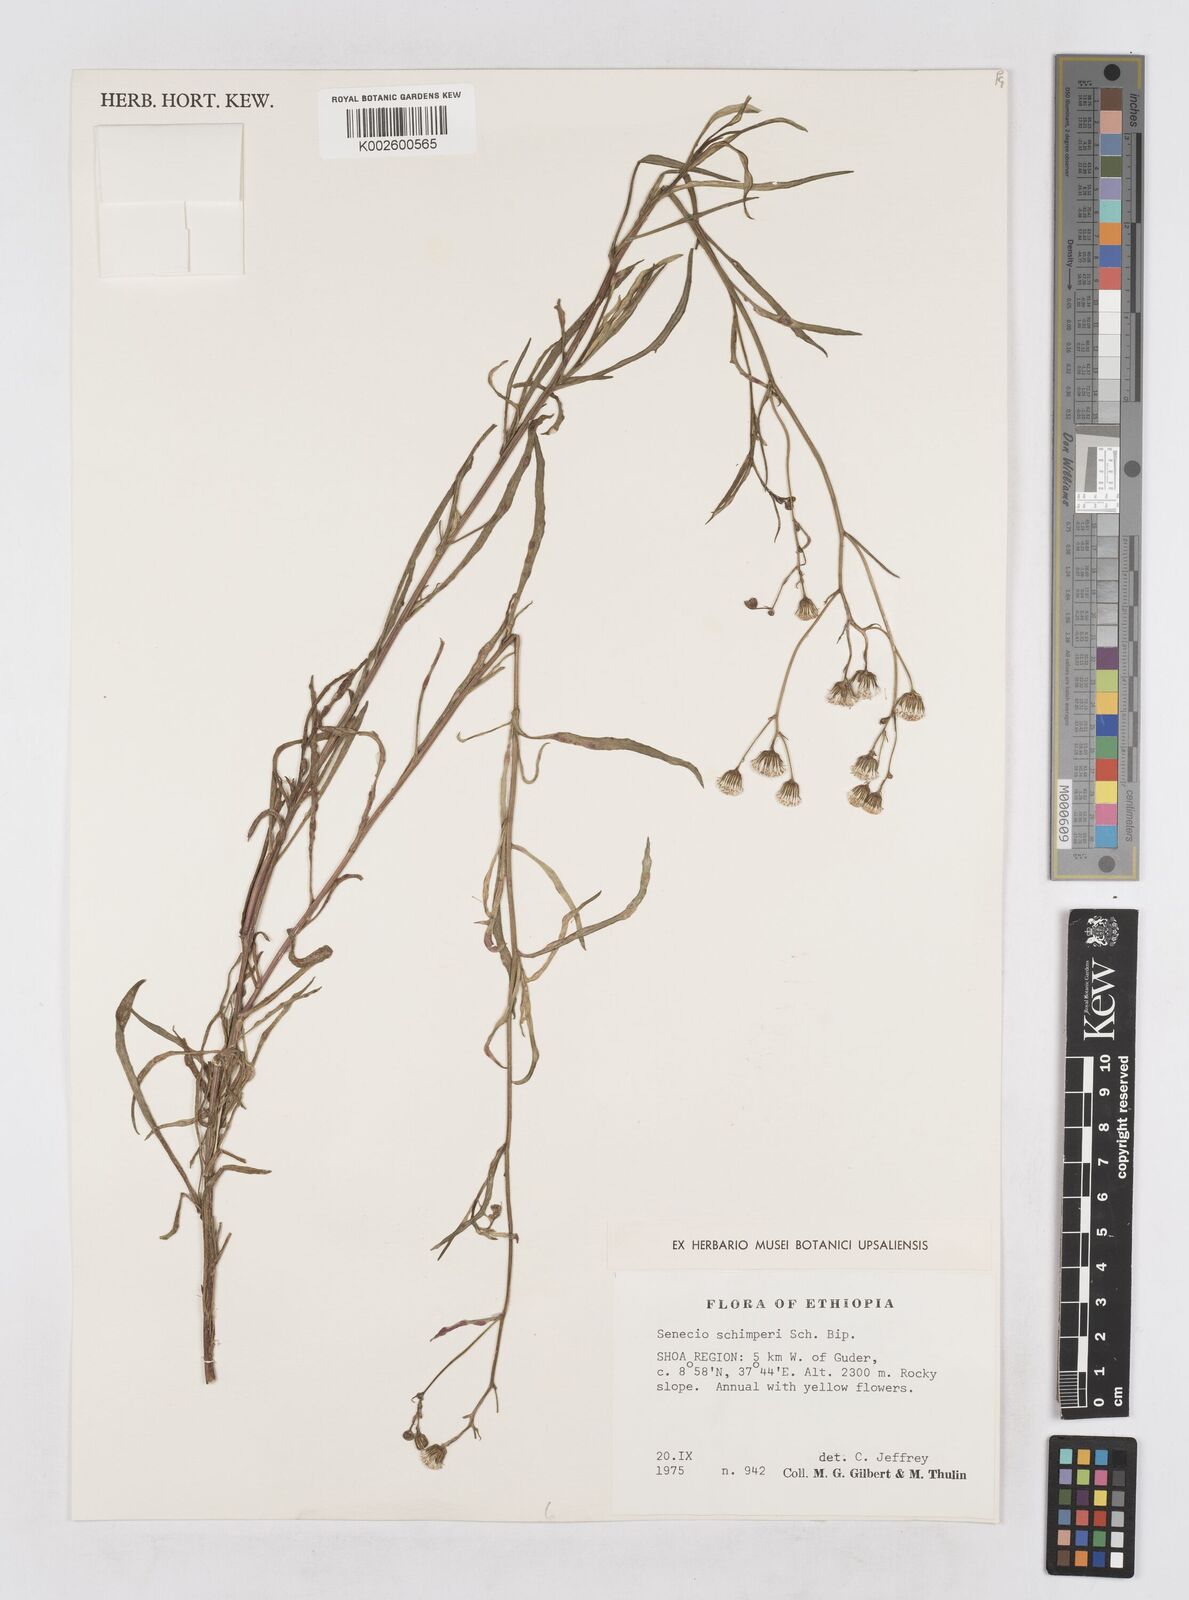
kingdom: Plantae
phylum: Tracheophyta
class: Magnoliopsida
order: Asterales
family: Asteraceae
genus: Senecio
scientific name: Senecio schimperi
